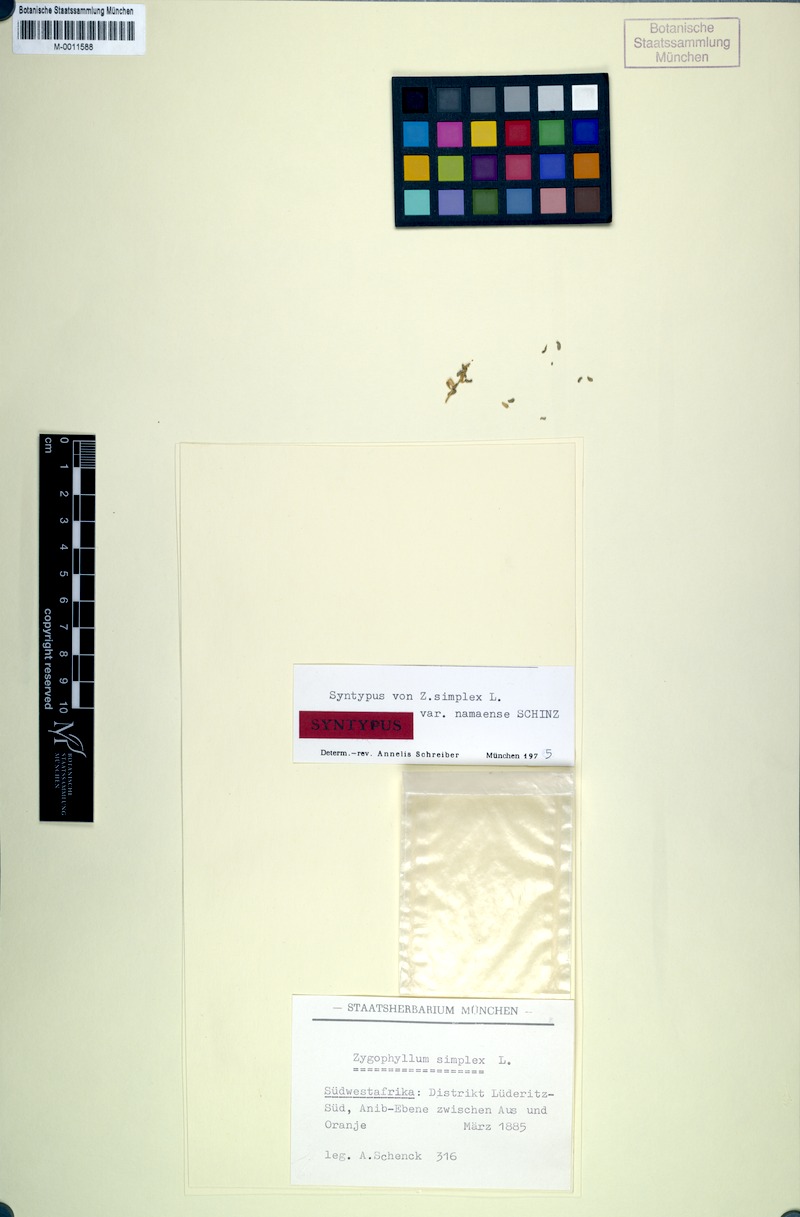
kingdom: Plantae
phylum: Tracheophyta
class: Magnoliopsida
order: Zygophyllales
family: Zygophyllaceae
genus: Tetraena
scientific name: Tetraena simplex
